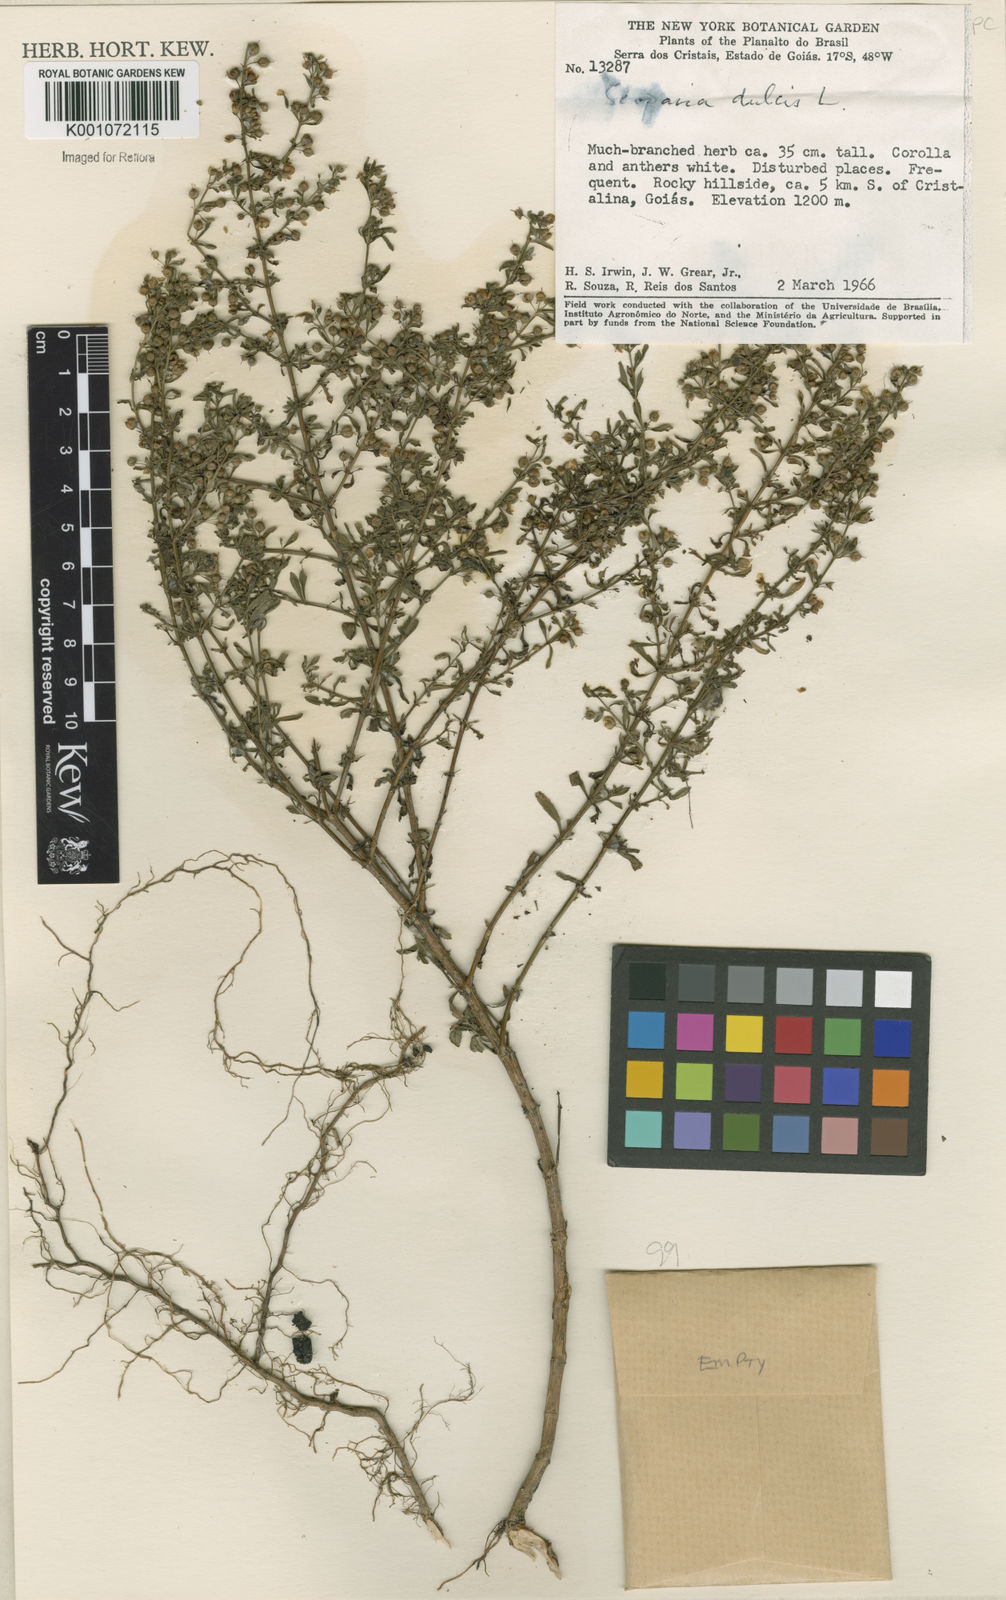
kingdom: Plantae
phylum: Tracheophyta
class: Magnoliopsida
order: Lamiales
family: Plantaginaceae
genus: Scoparia
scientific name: Scoparia dulcis
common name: Scoparia-weed
